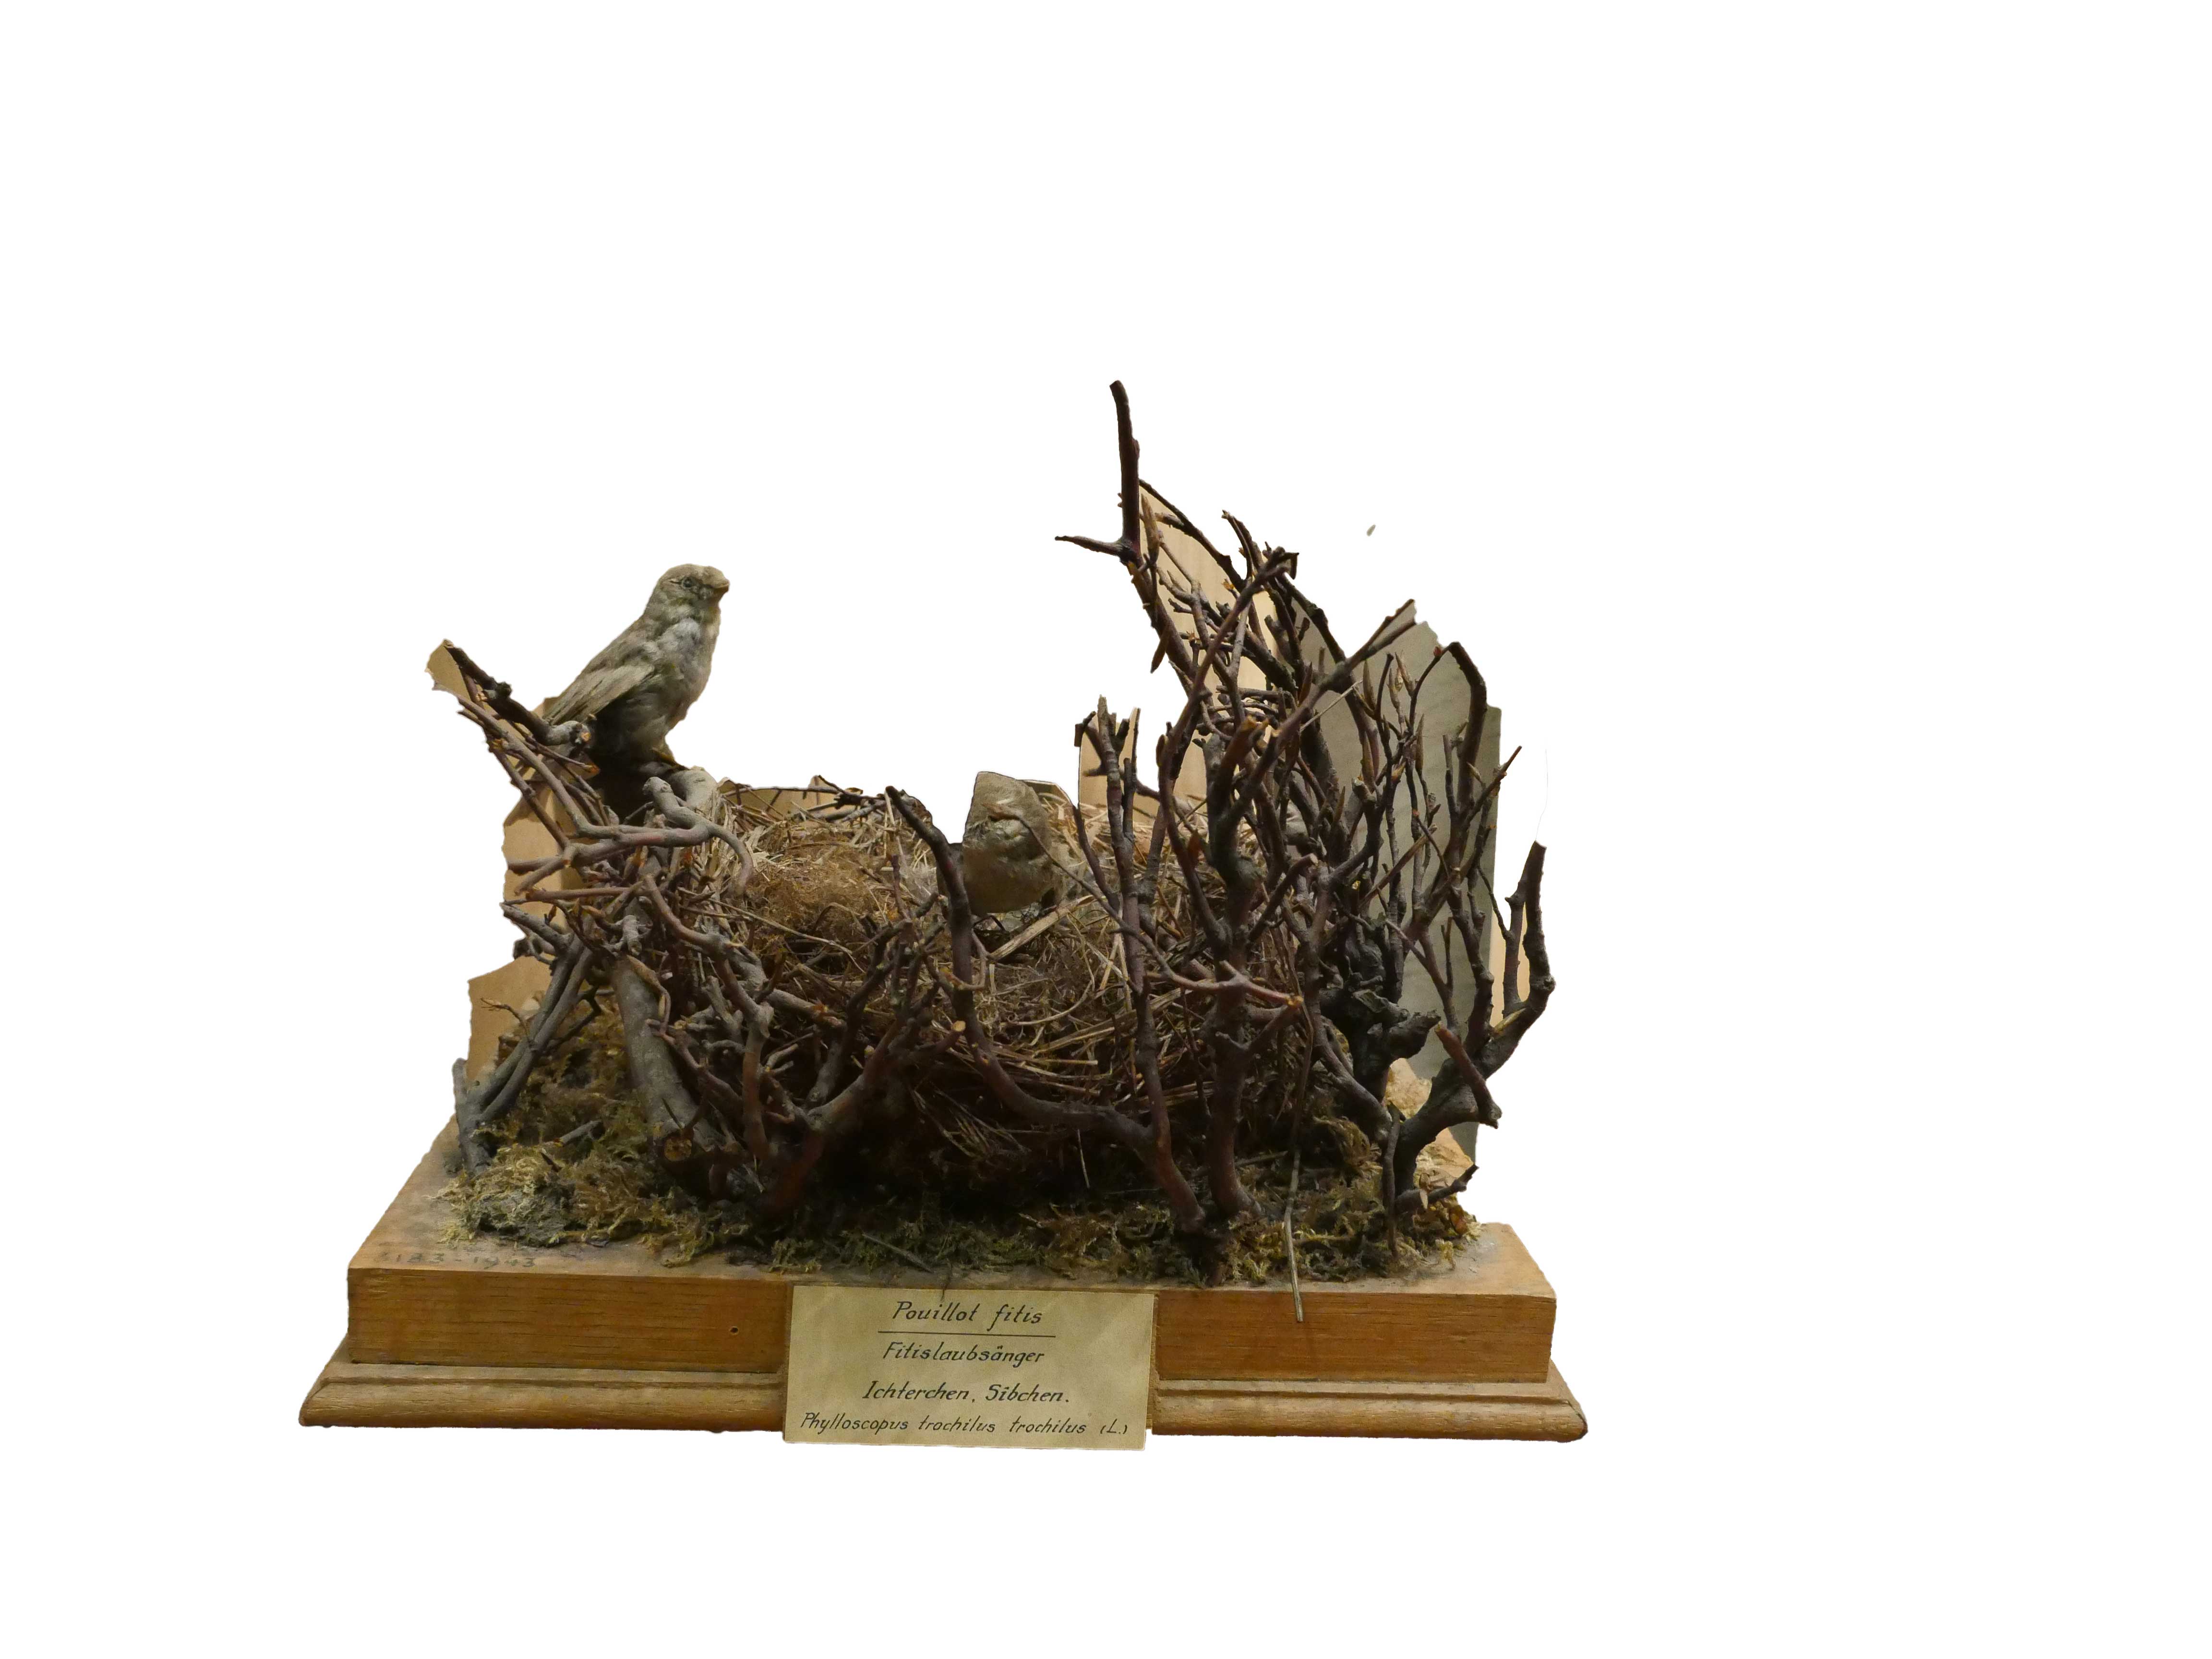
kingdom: Animalia
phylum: Chordata
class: Aves
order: Passeriformes
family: Phylloscopidae
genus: Phylloscopus
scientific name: Phylloscopus trochilus
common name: Willow warbler
